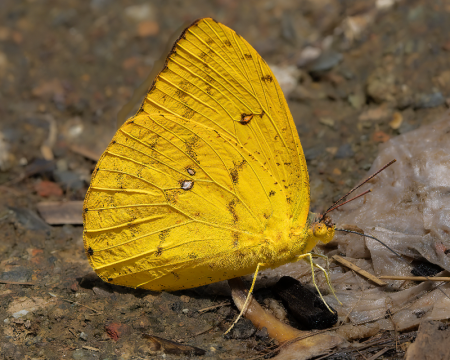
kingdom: Animalia
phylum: Arthropoda
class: Insecta
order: Lepidoptera
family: Pieridae
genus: Phoebis
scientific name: Phoebis argante
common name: Apricot Sulphur
